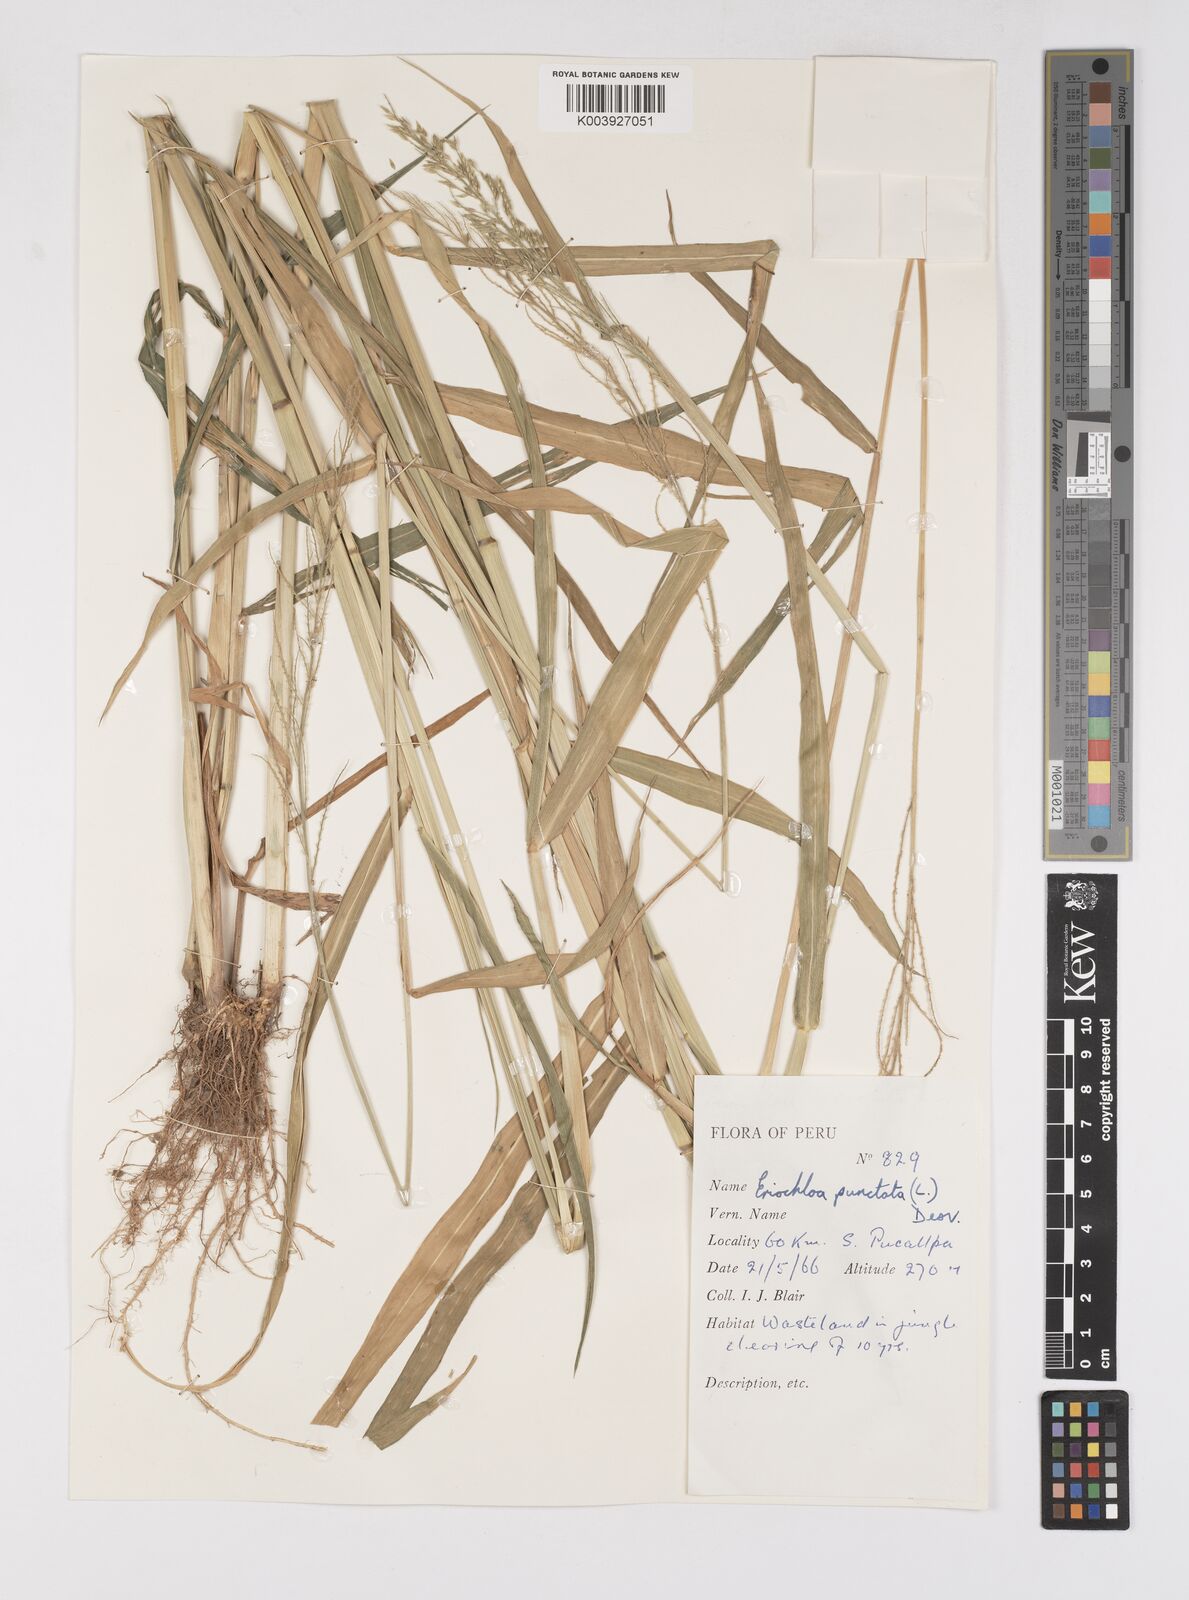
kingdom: Plantae
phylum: Tracheophyta
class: Liliopsida
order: Poales
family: Poaceae
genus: Eriochloa
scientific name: Eriochloa punctata
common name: Louisiana cupgrass
